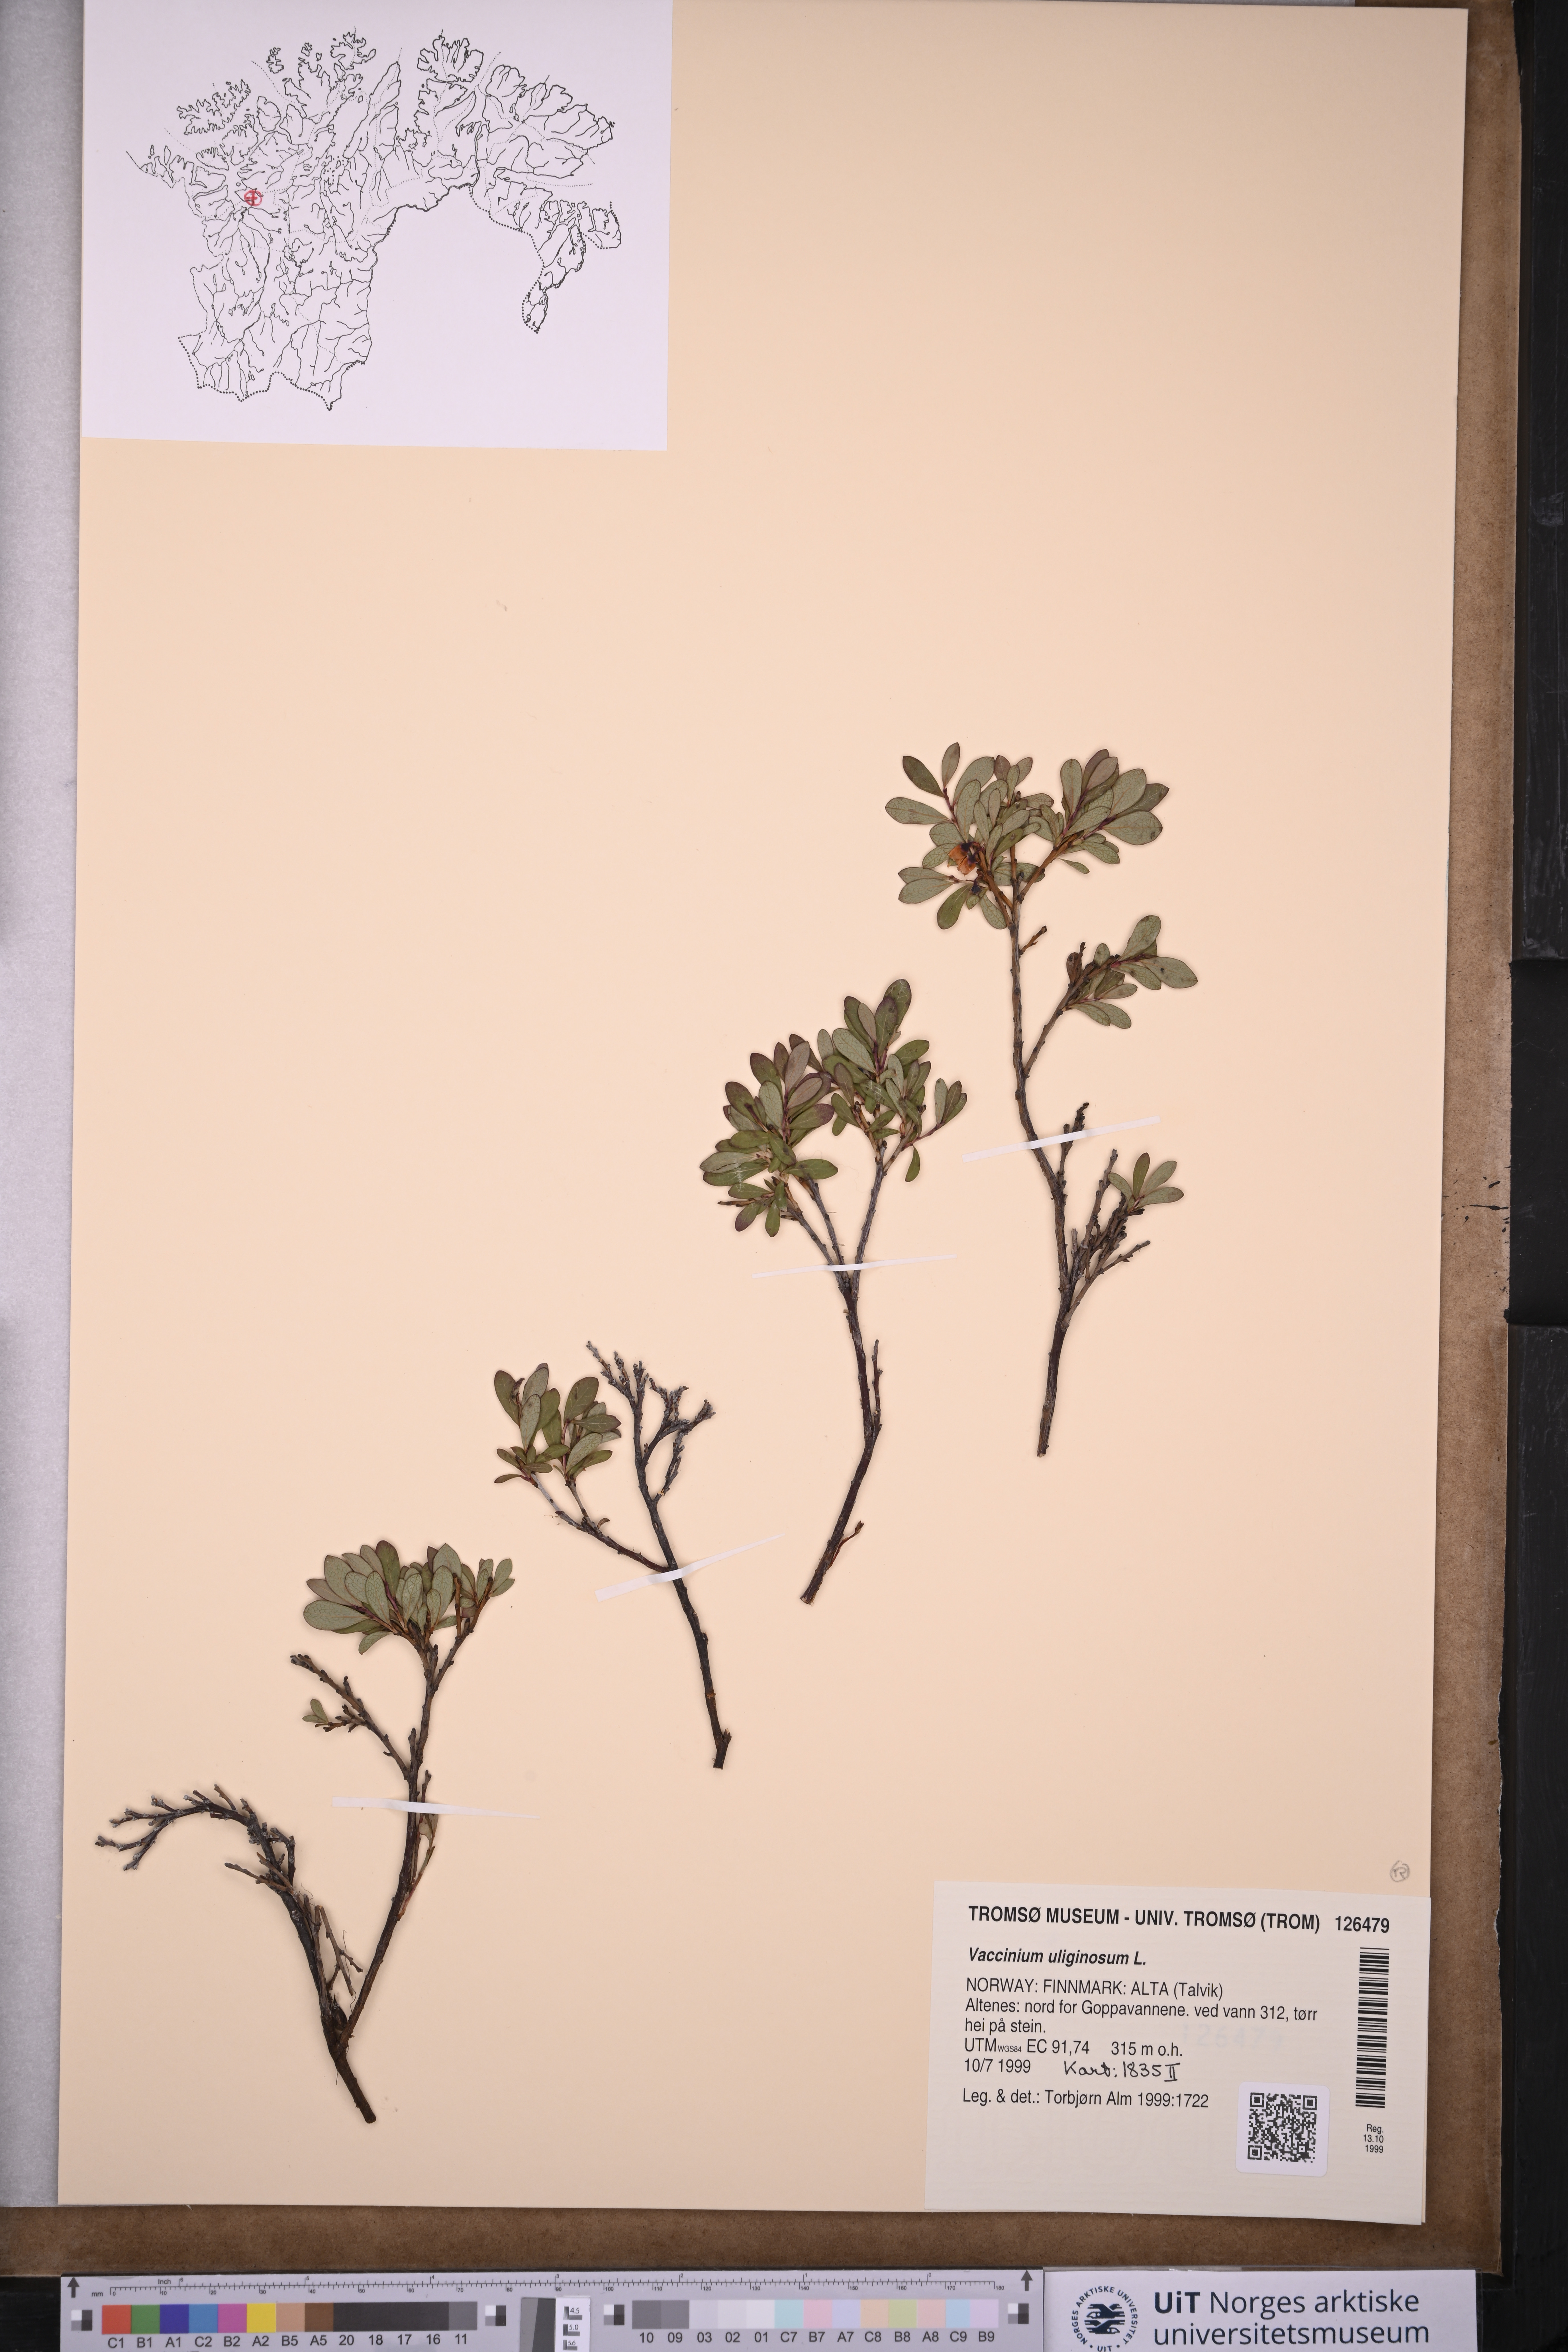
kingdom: Plantae
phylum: Tracheophyta
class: Magnoliopsida
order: Ericales
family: Ericaceae
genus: Vaccinium
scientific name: Vaccinium uliginosum
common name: Bog bilberry
